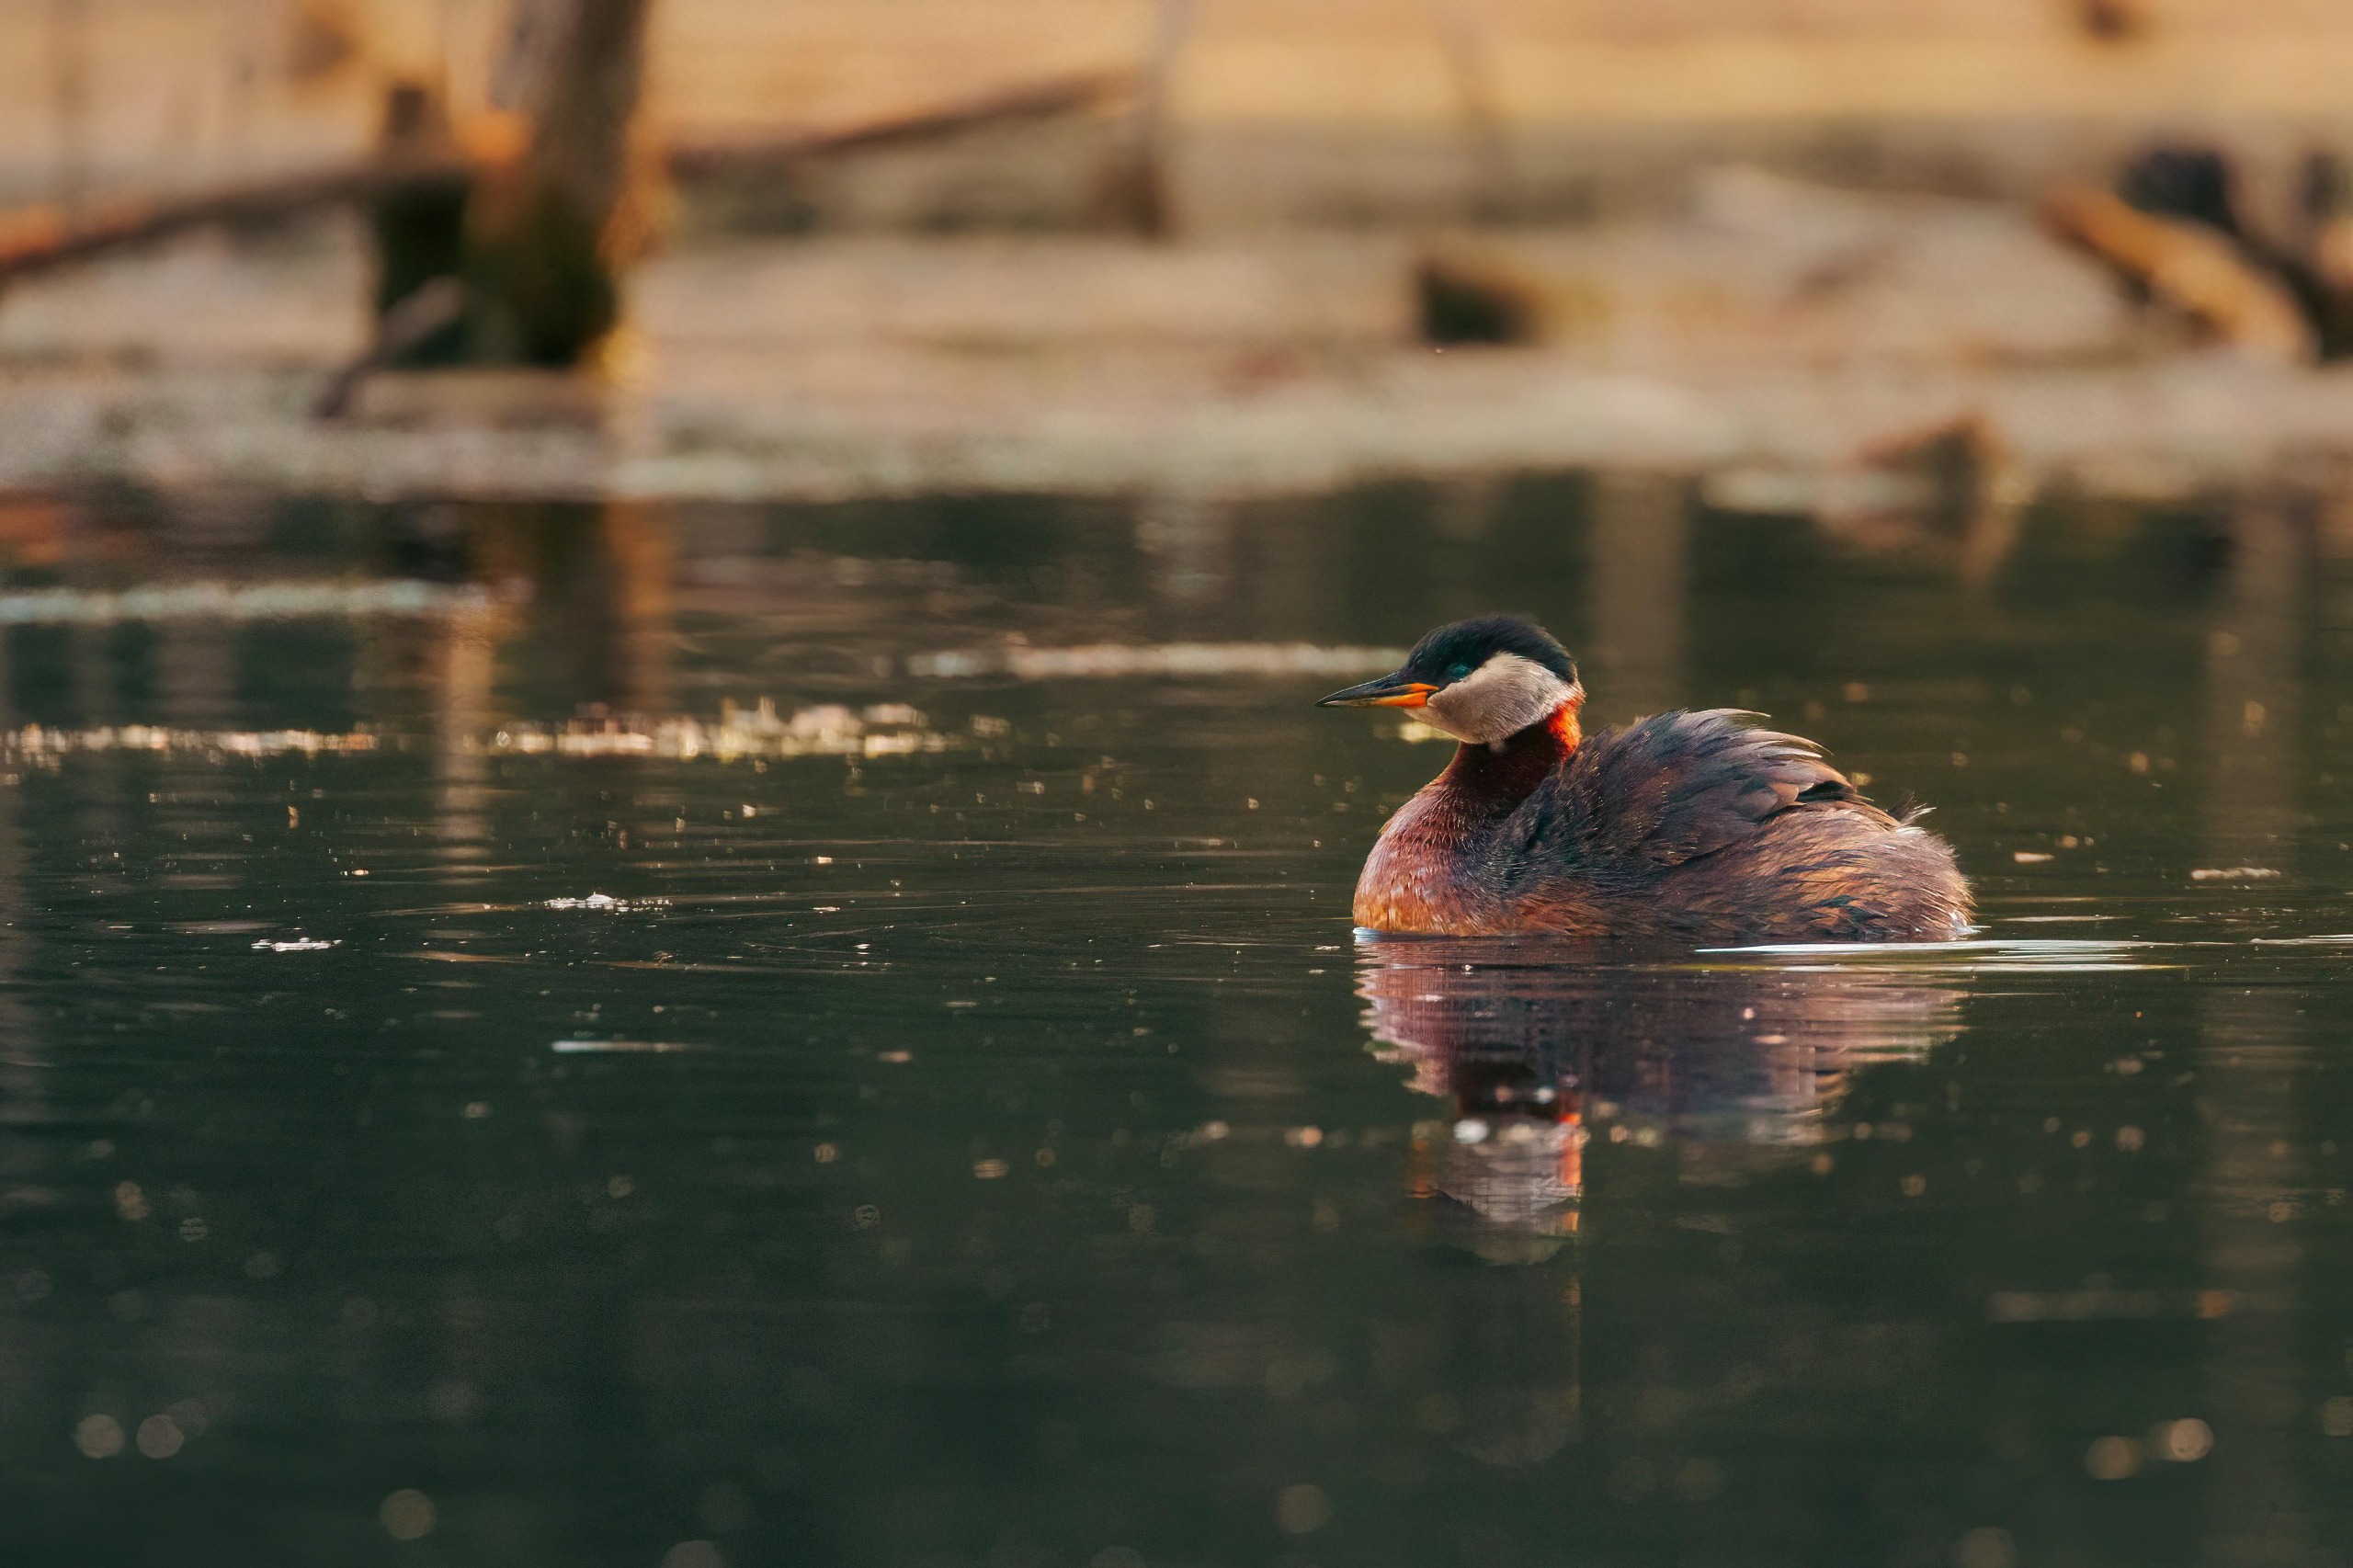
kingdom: Animalia
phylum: Chordata
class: Aves
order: Podicipediformes
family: Podicipedidae
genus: Podiceps
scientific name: Podiceps grisegena
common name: Gråstrubet lappedykker
